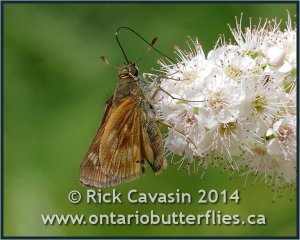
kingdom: Animalia
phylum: Arthropoda
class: Insecta
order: Lepidoptera
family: Hesperiidae
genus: Polites
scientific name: Polites
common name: Long Dash Skipper
